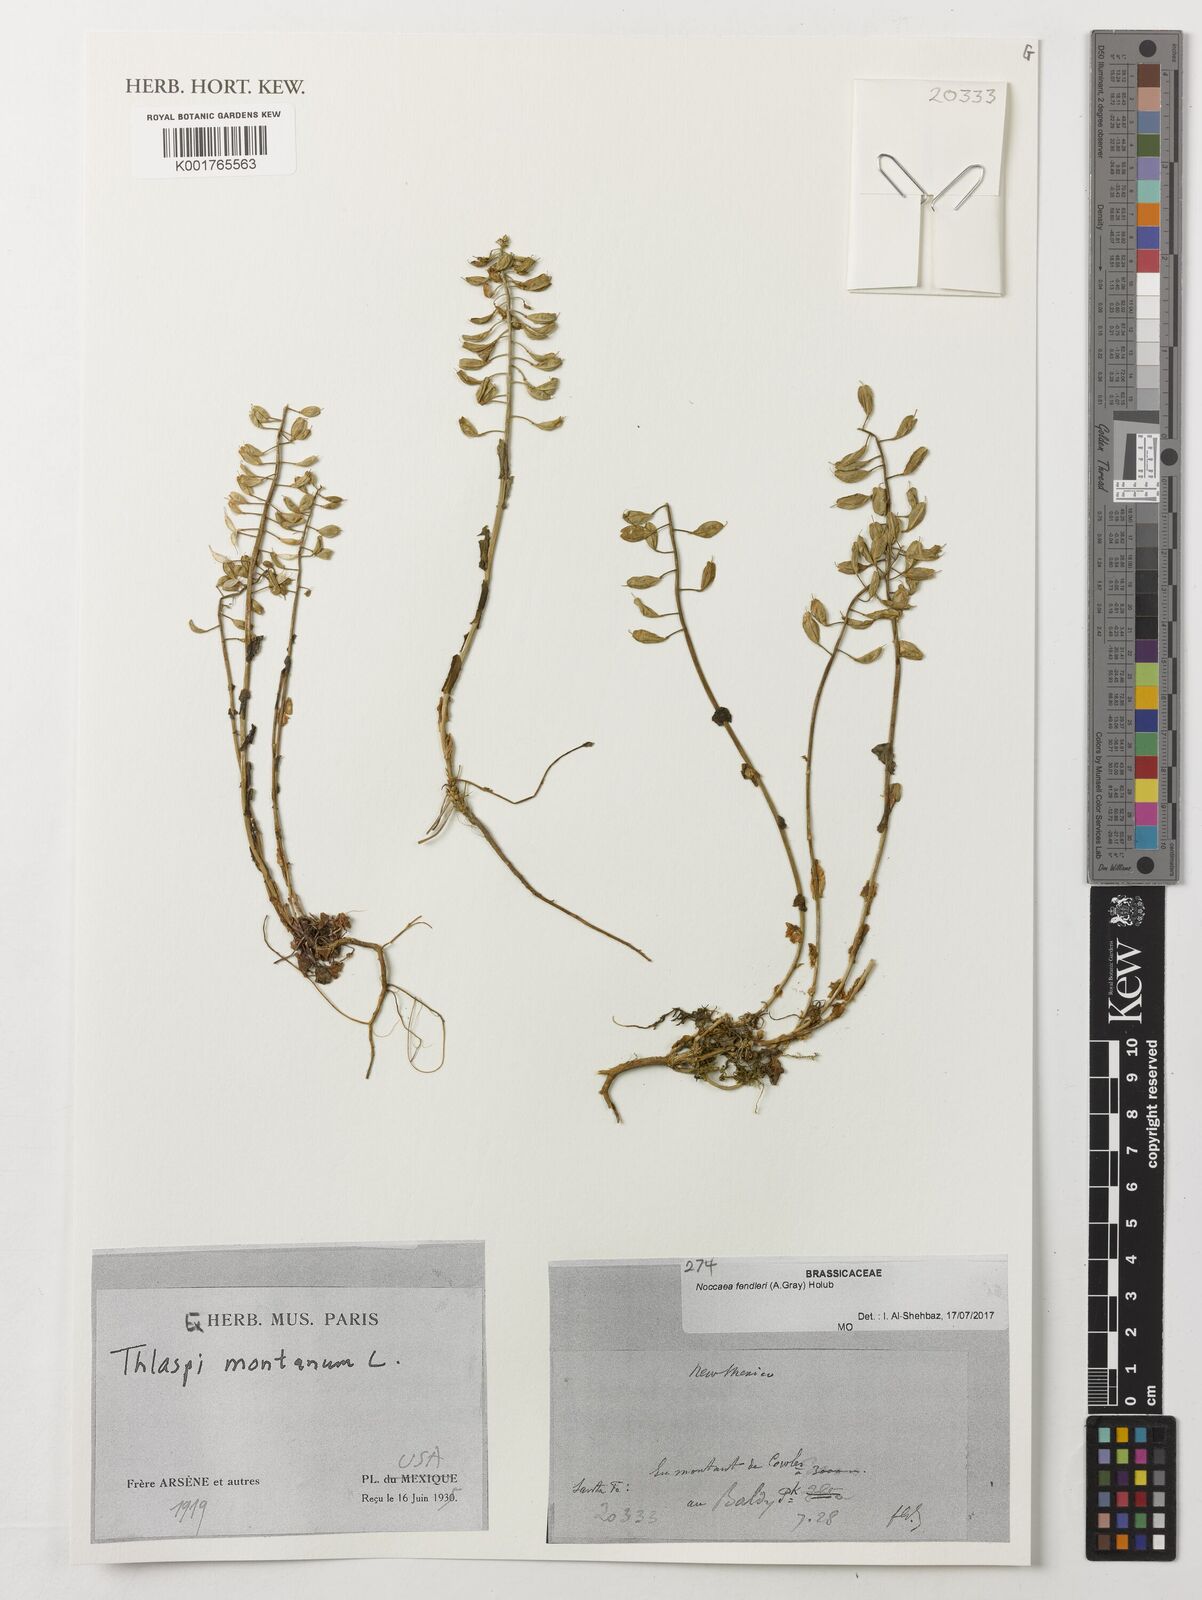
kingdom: Plantae
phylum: Tracheophyta
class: Magnoliopsida
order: Brassicales
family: Brassicaceae
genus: Noccaea
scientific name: Noccaea fendleri
